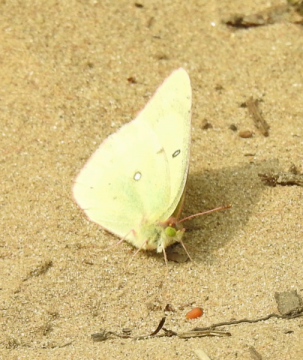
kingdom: Animalia
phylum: Arthropoda
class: Insecta
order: Lepidoptera
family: Pieridae
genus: Colias
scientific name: Colias philodice
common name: Clouded Sulphur
